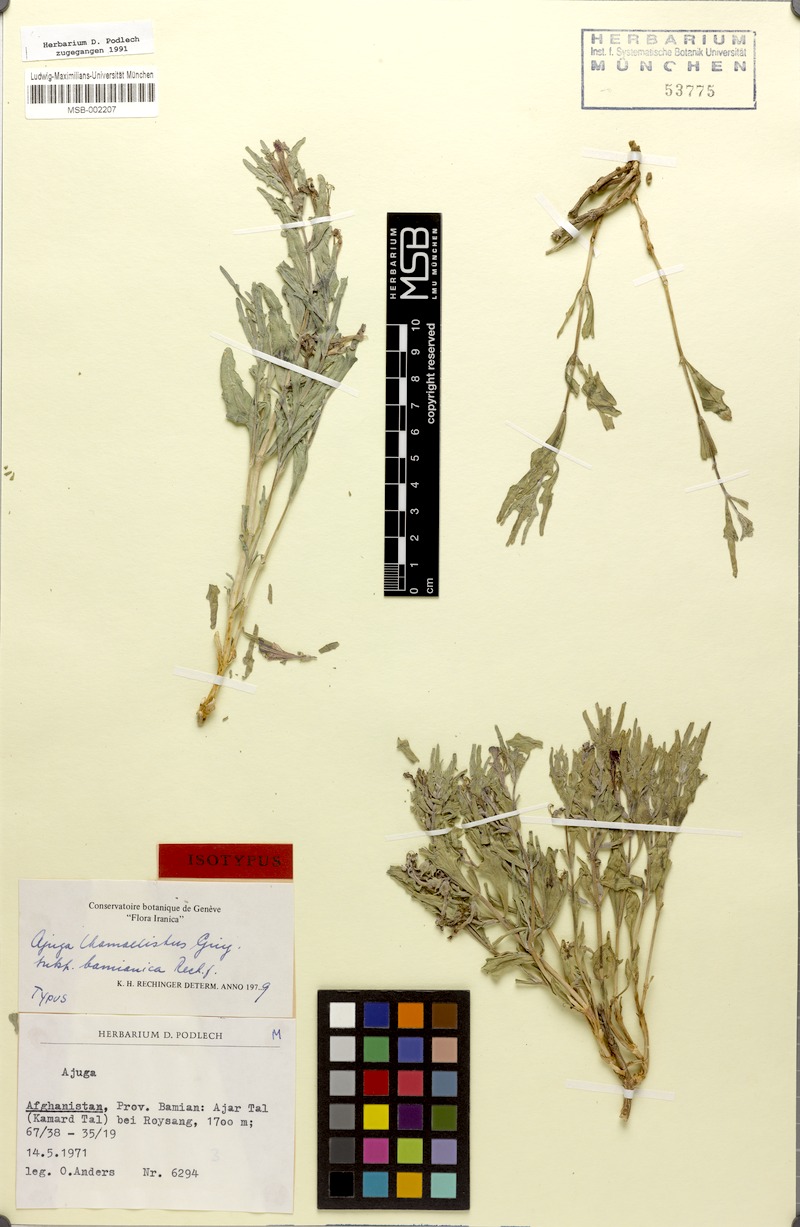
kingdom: Plantae
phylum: Tracheophyta
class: Magnoliopsida
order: Lamiales
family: Lamiaceae
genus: Ajuga
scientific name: Ajuga chamaecistus
